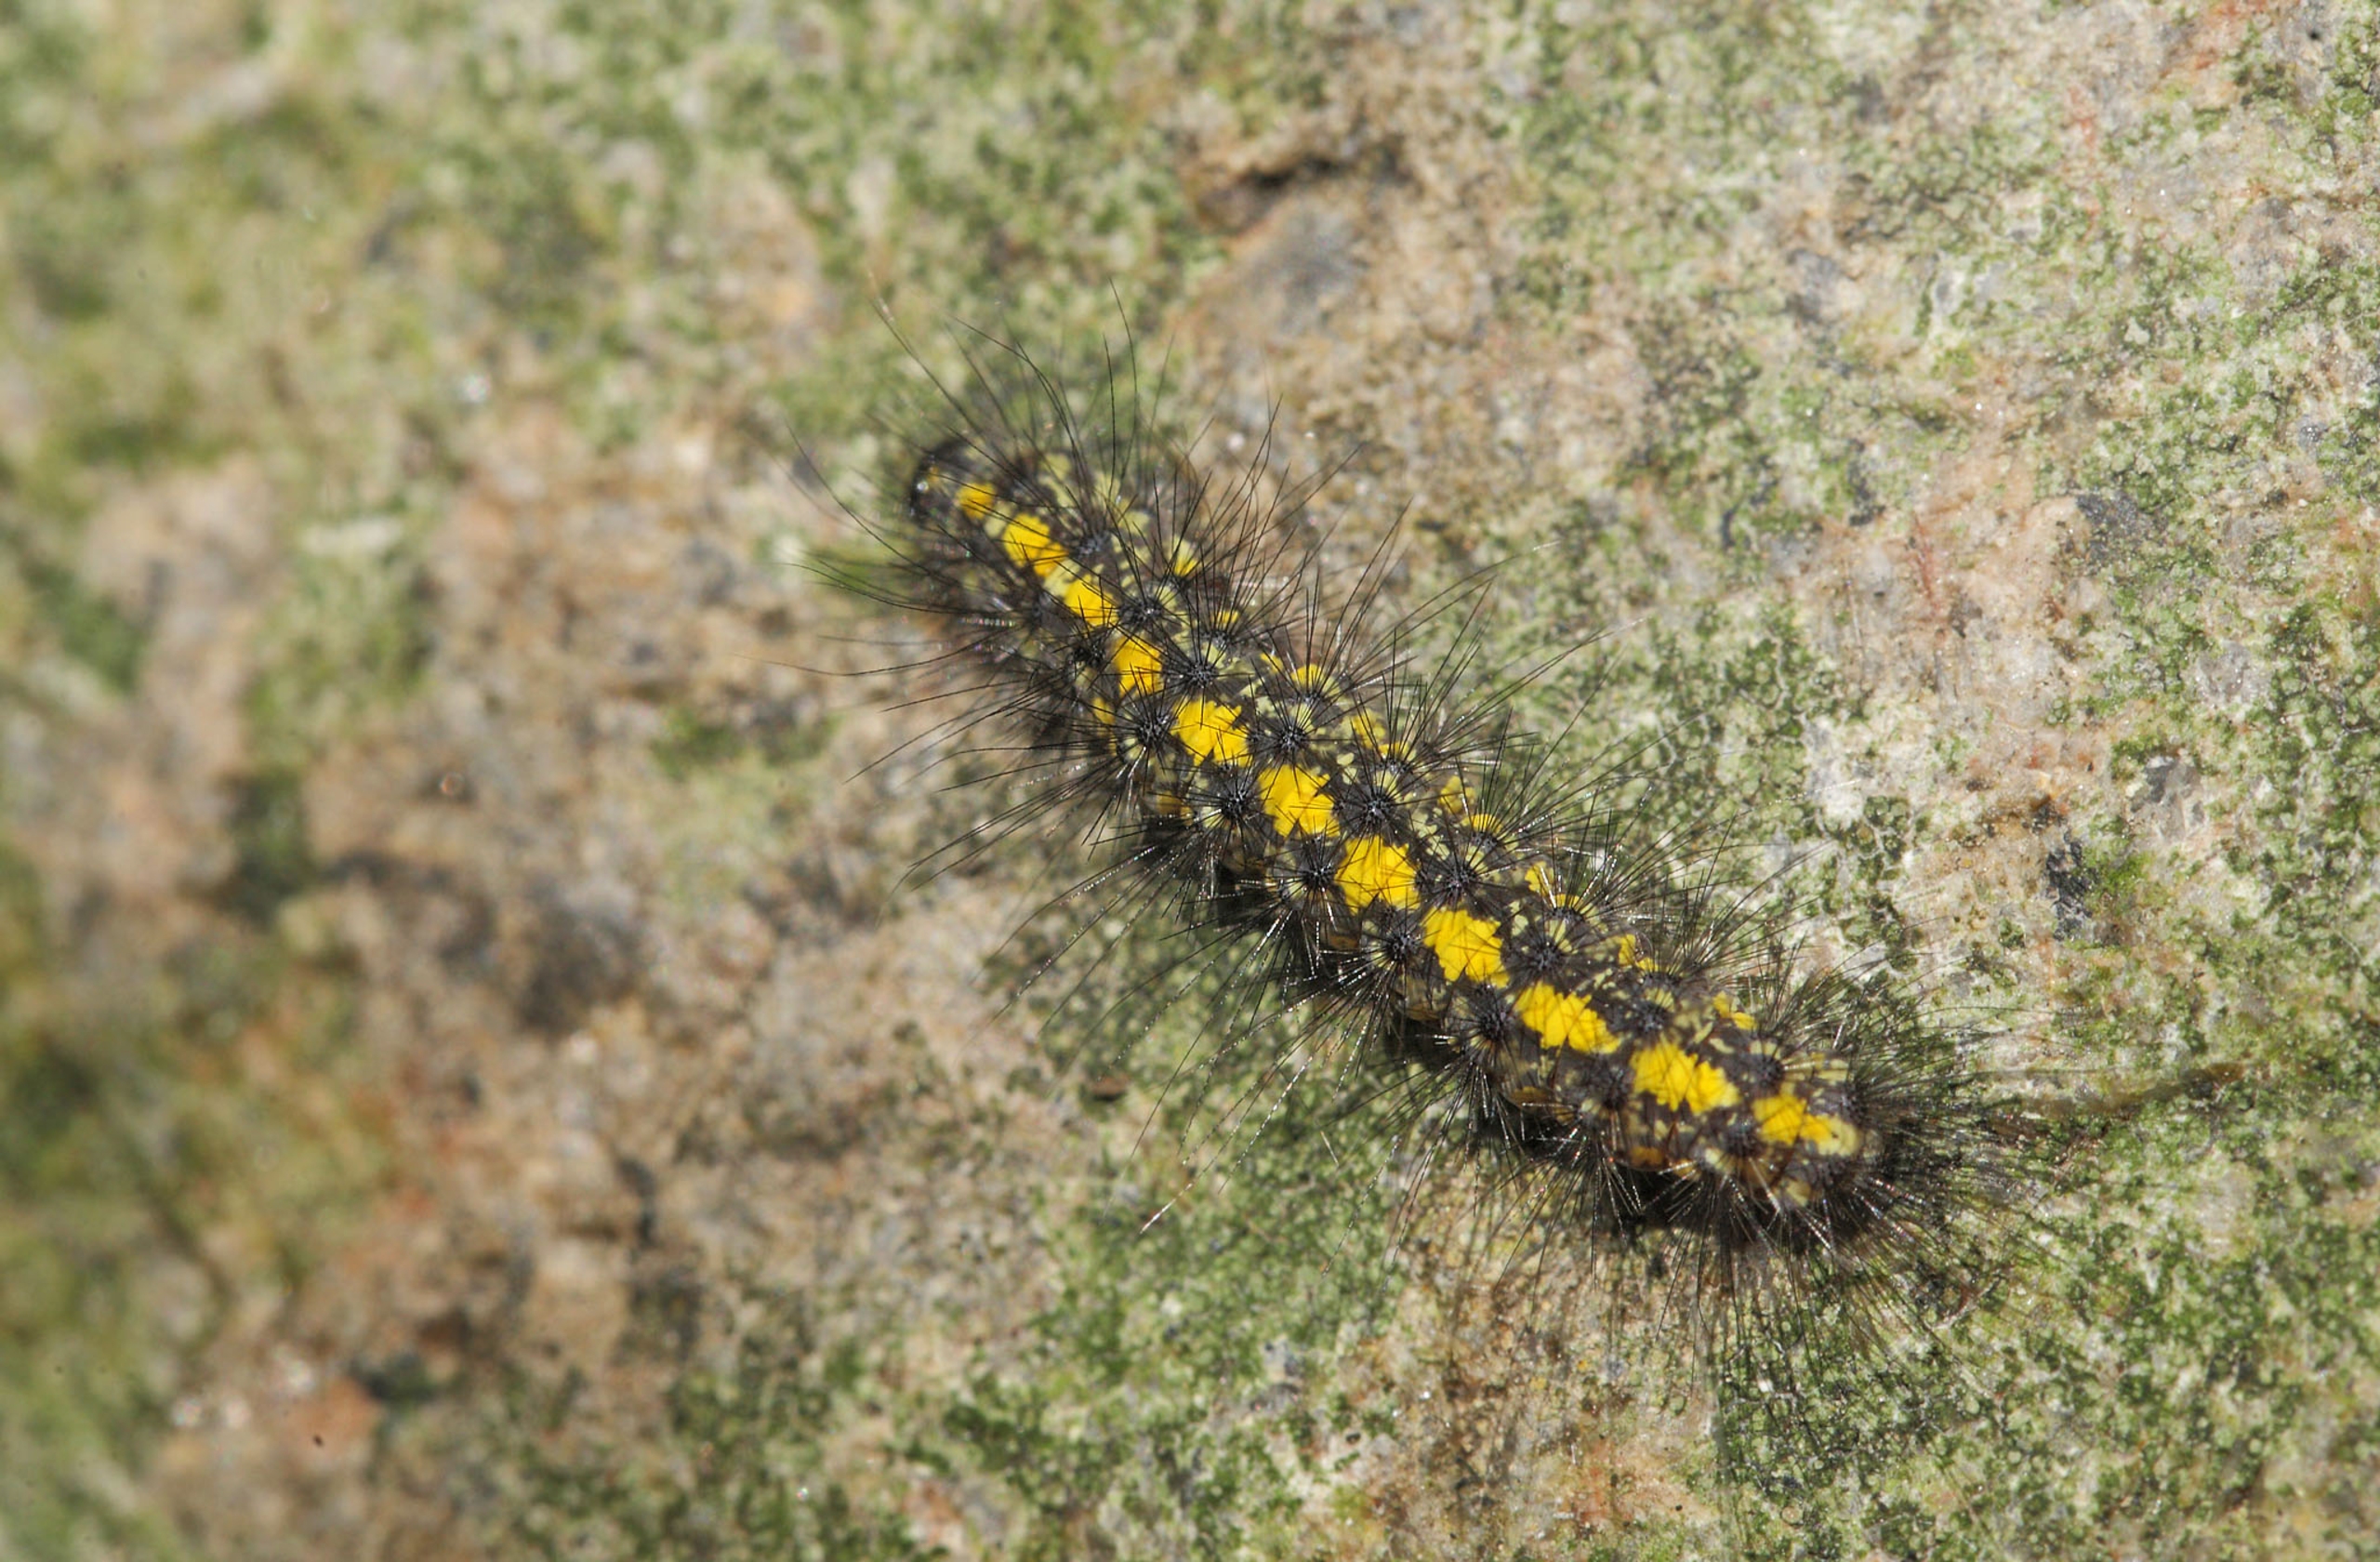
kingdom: Animalia
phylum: Arthropoda
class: Insecta
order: Lepidoptera
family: Erebidae
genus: Setina
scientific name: Setina irrorella
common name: Citronbjørn
